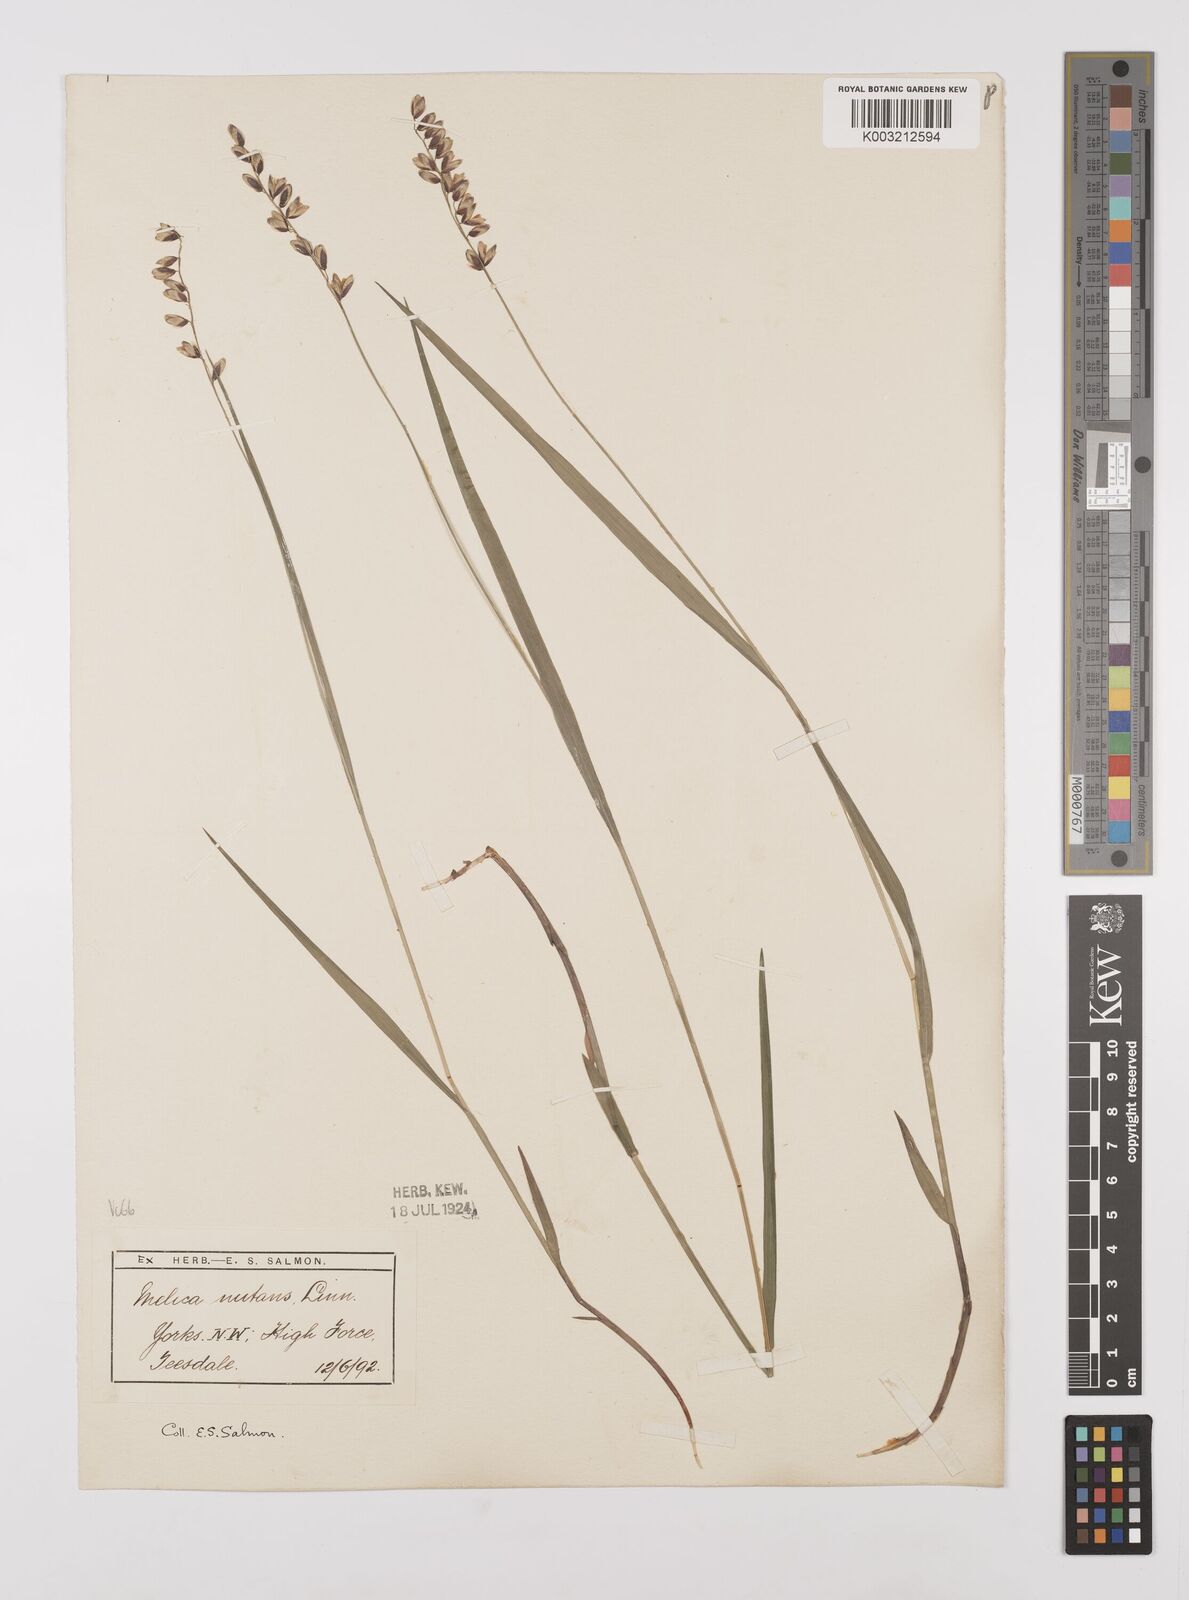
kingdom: Plantae
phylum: Tracheophyta
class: Liliopsida
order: Poales
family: Poaceae
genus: Melica
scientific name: Melica
